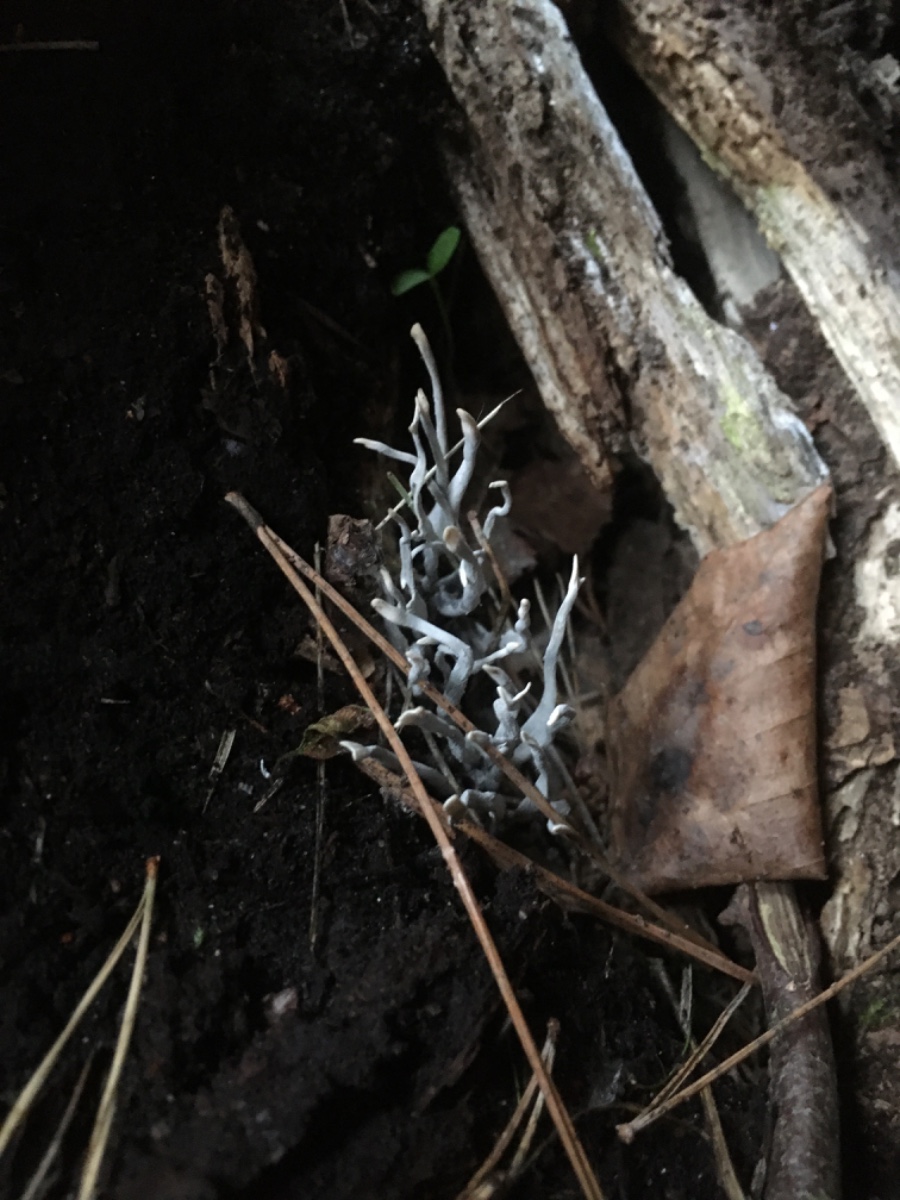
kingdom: Fungi
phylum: Ascomycota
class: Sordariomycetes
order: Xylariales
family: Xylariaceae
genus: Xylaria
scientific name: Xylaria hypoxylon
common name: grenet stødsvamp
